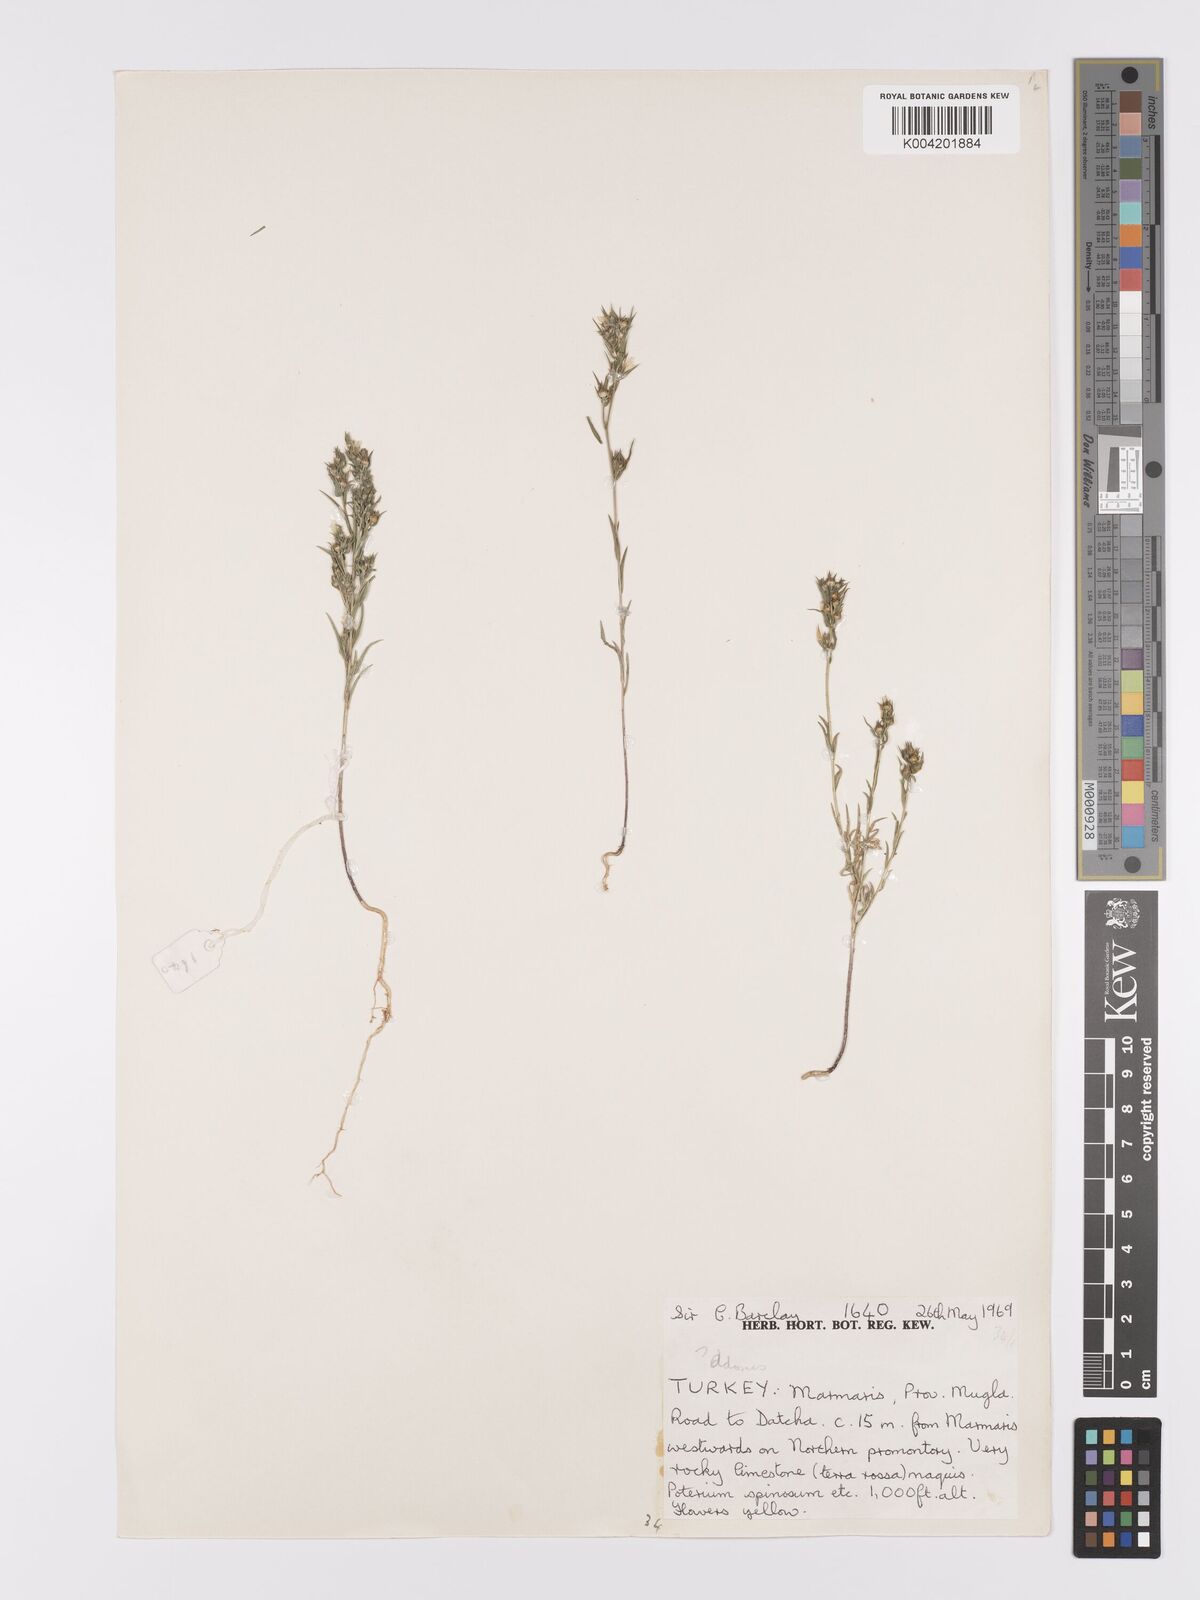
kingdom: Plantae
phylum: Tracheophyta
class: Magnoliopsida
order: Malpighiales
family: Linaceae
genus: Linum
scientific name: Linum
